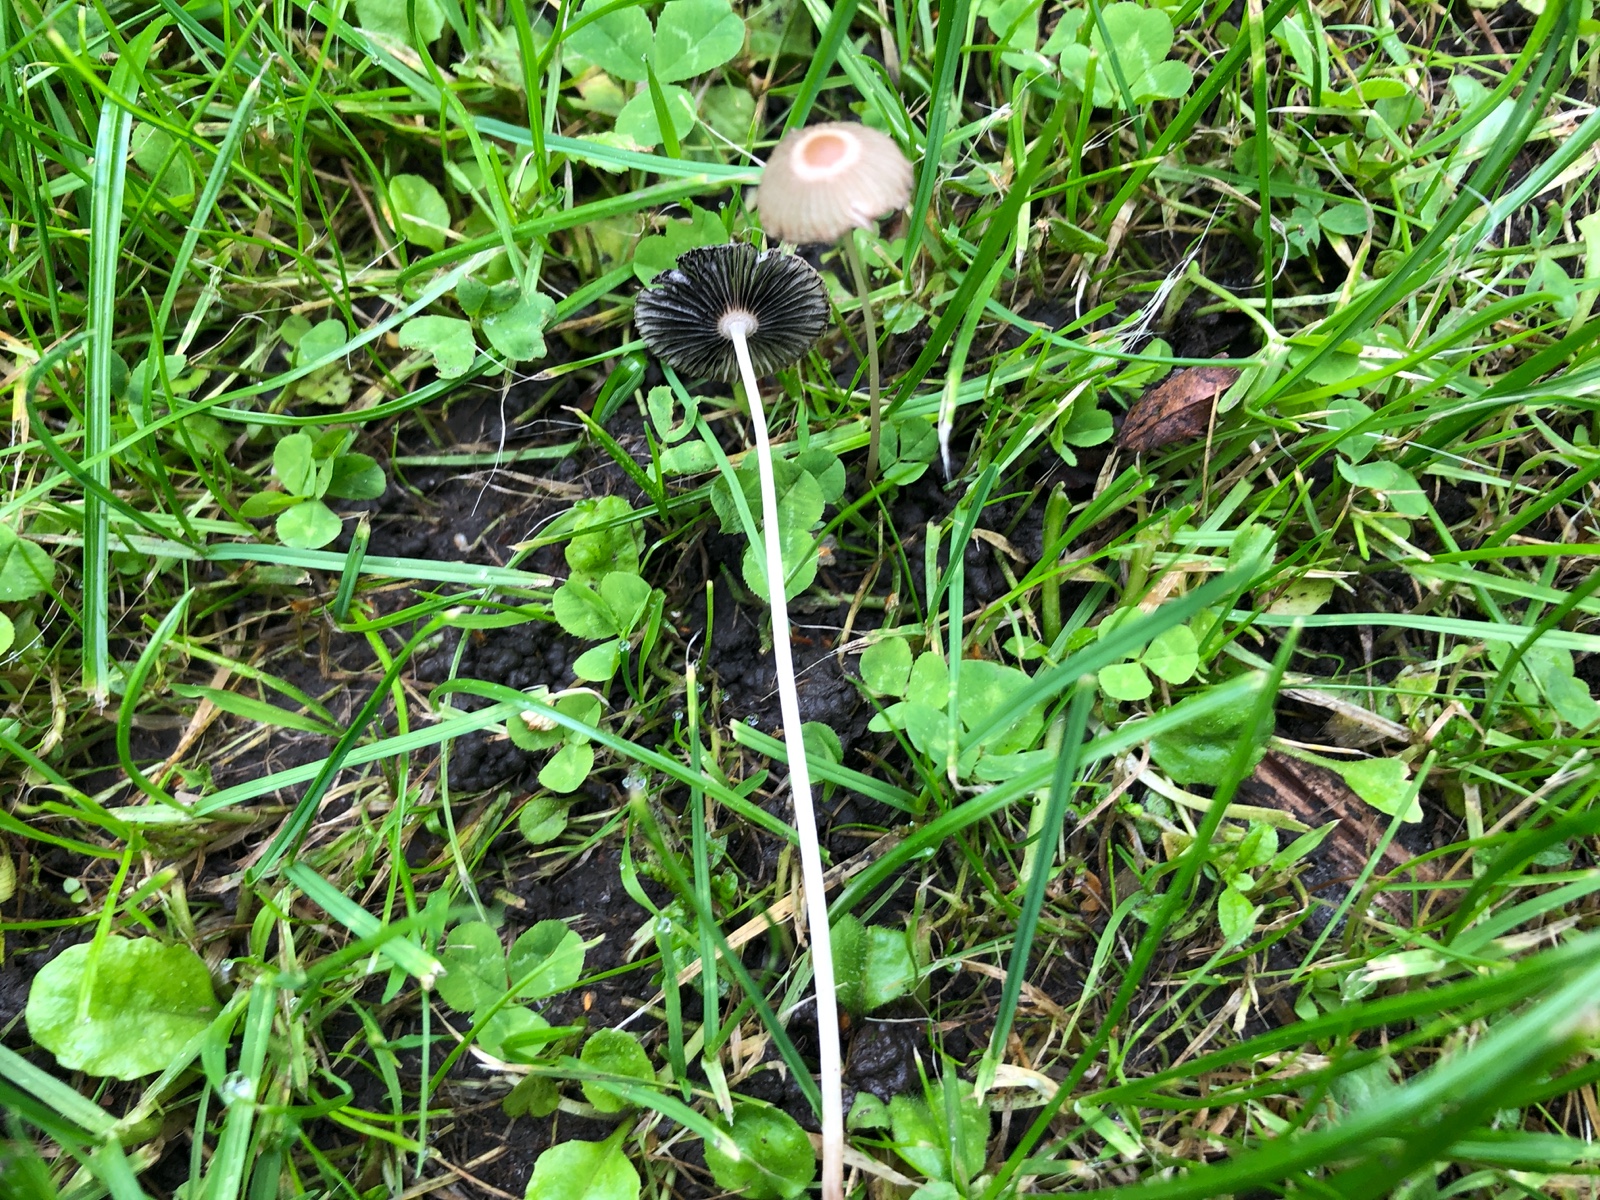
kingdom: Fungi
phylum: Basidiomycota
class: Agaricomycetes
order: Agaricales
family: Psathyrellaceae
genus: Parasola
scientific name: Parasola plicatilis
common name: plæne-hjulhat
